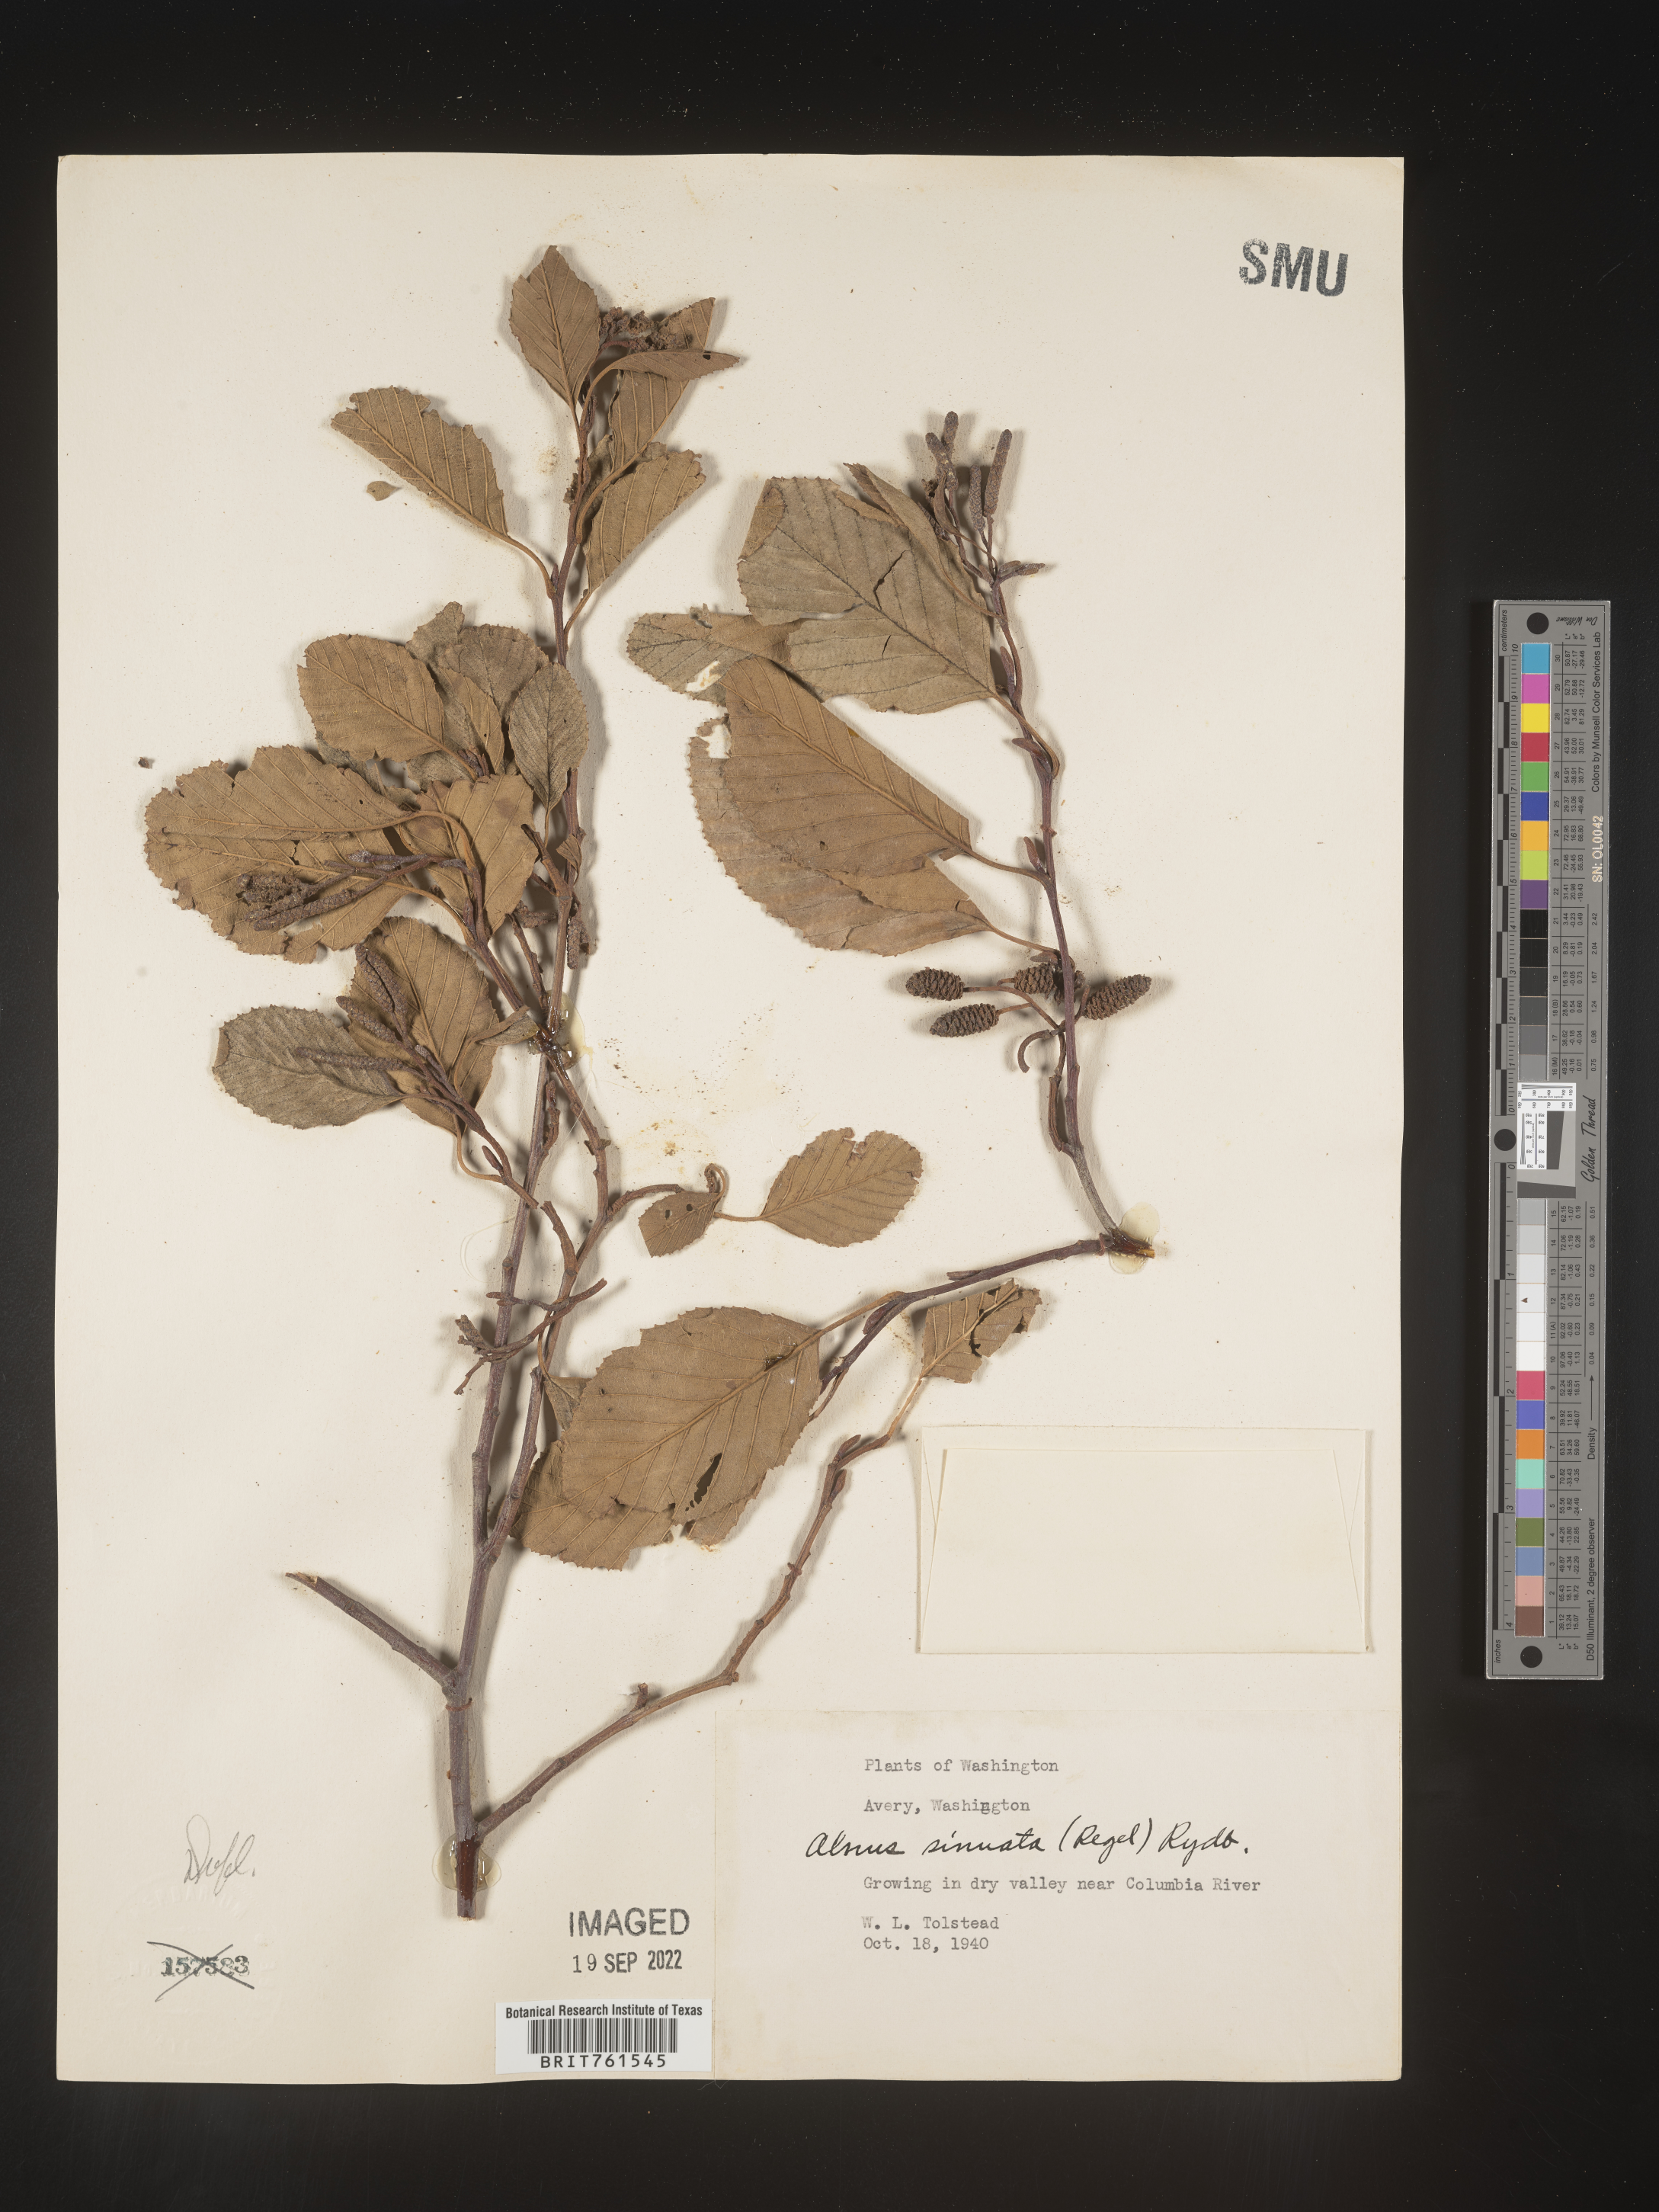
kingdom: Plantae
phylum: Tracheophyta
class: Magnoliopsida
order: Fagales
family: Betulaceae
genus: Alnus
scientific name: Alnus alnobetula
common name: Green alder
